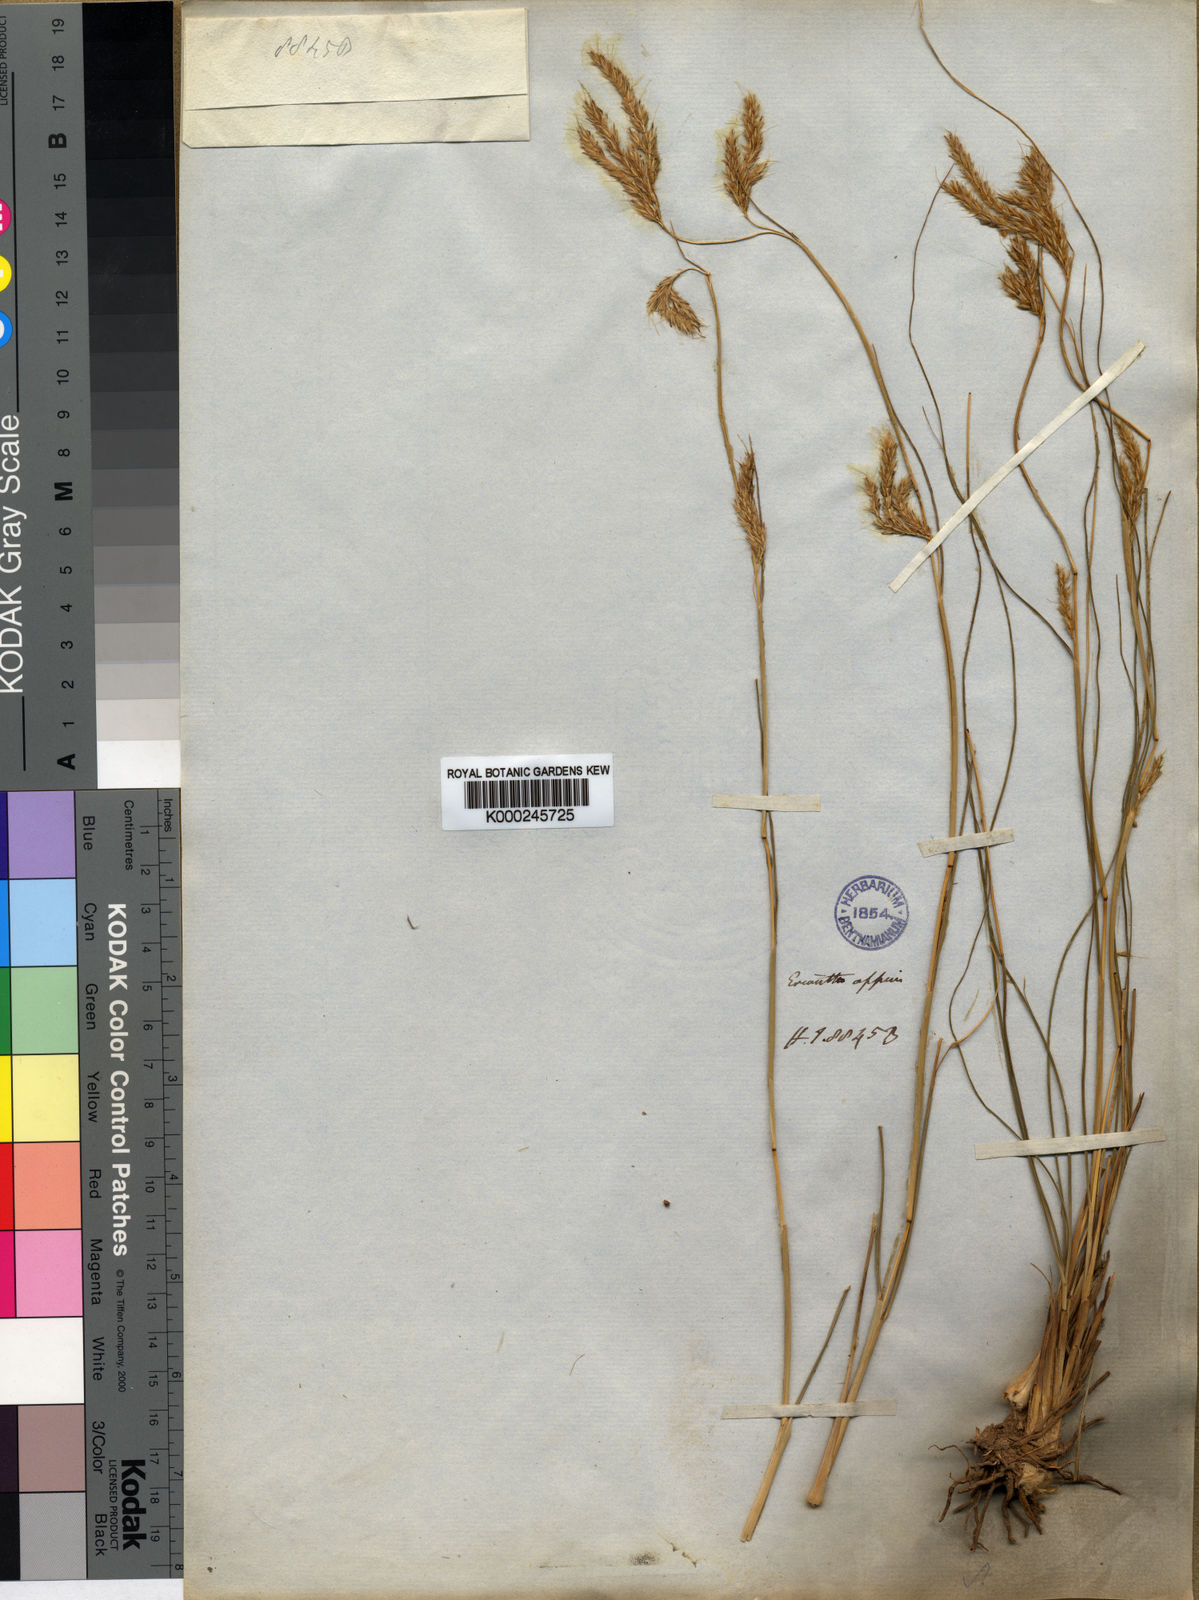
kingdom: Plantae
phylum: Tracheophyta
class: Liliopsida
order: Poales
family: Poaceae
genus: Eulaliopsis
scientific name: Eulaliopsis binata
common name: Baib grass
